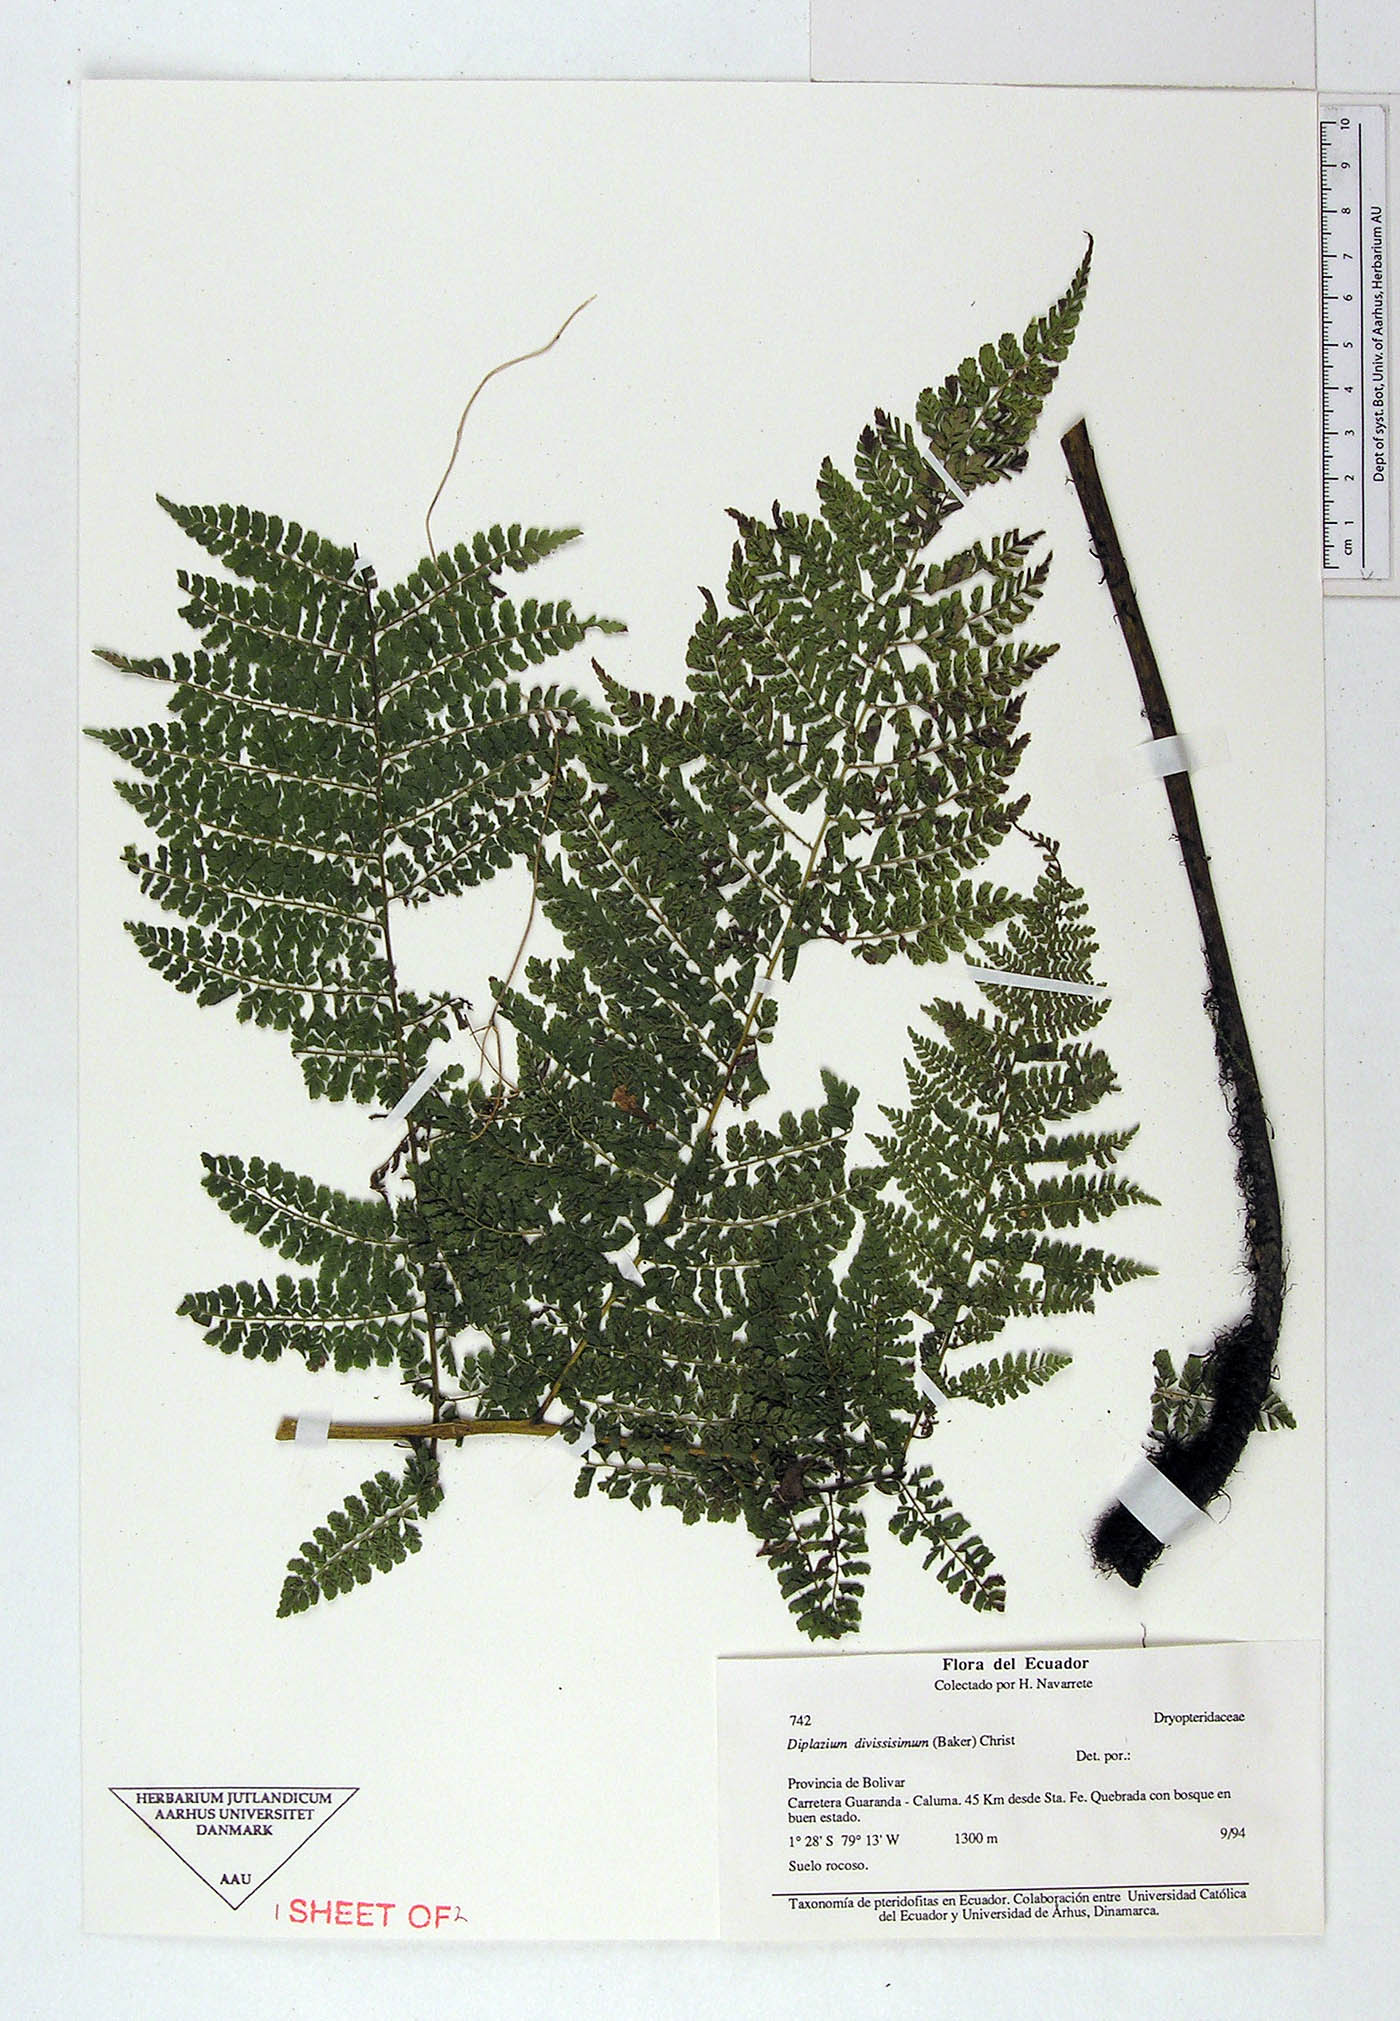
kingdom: Plantae
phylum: Tracheophyta
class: Polypodiopsida
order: Polypodiales
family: Athyriaceae
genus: Diplazium
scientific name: Diplazium
